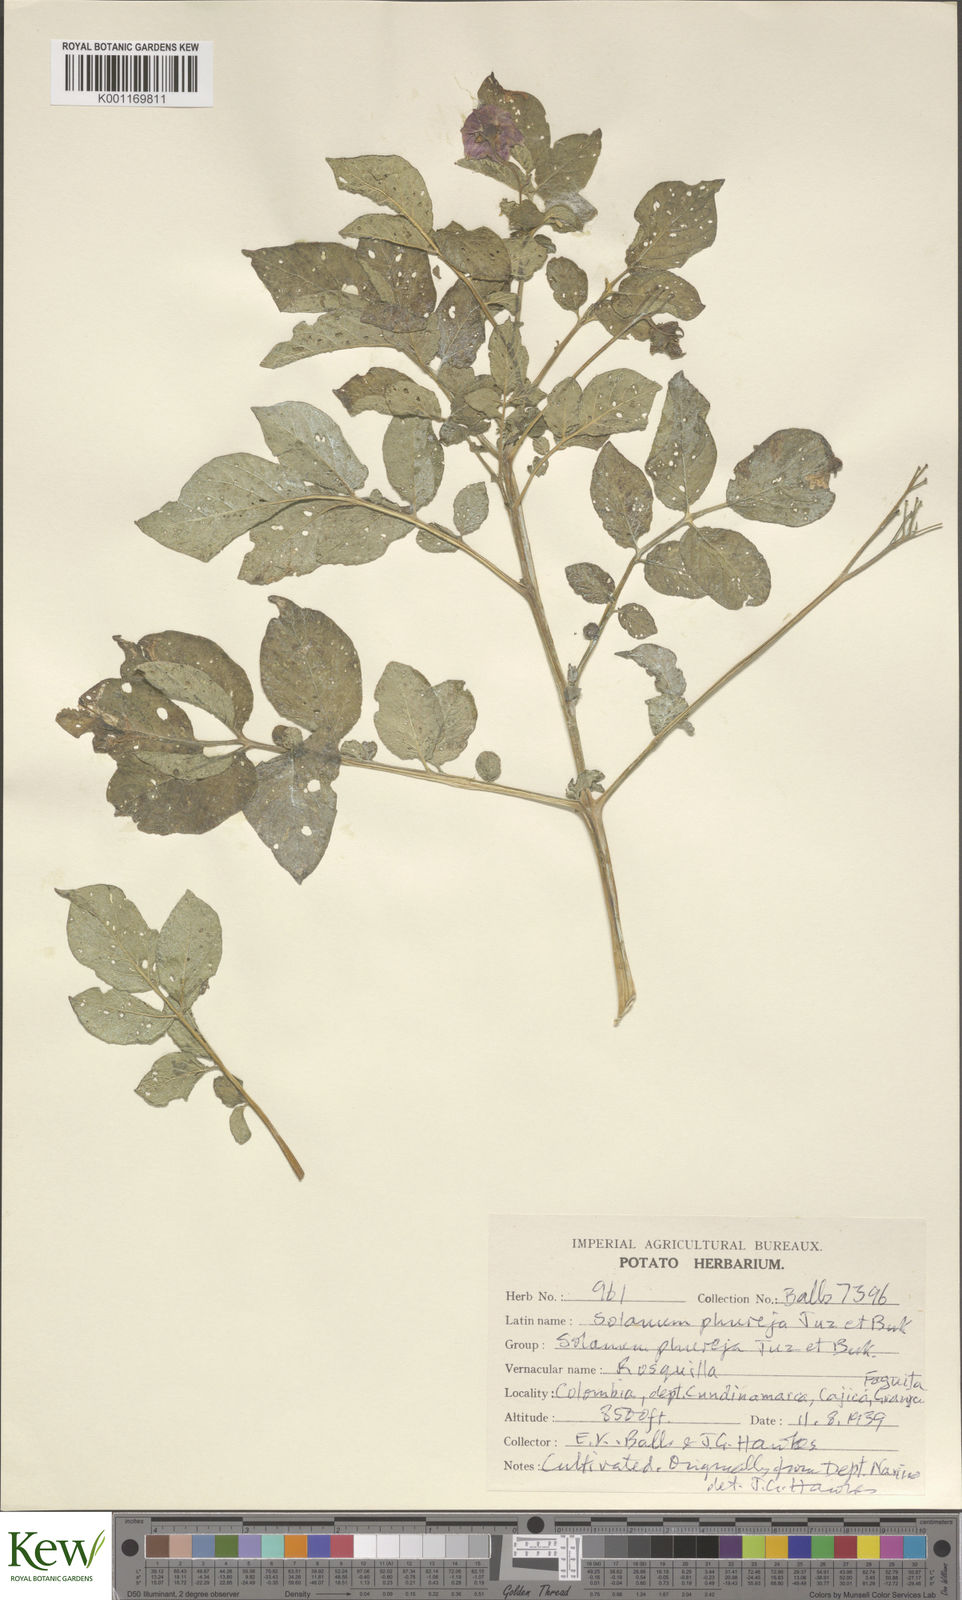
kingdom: Plantae
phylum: Tracheophyta
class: Magnoliopsida
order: Solanales
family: Solanaceae
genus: Solanum
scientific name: Solanum tuberosum
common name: Potato
